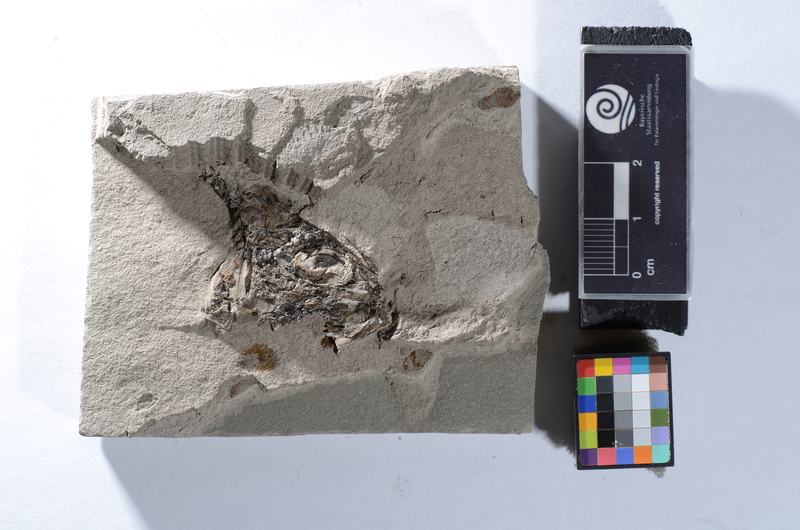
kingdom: Animalia
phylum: Chordata
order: Clupeiformes
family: Clupeidae
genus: Clupea
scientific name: Clupea
